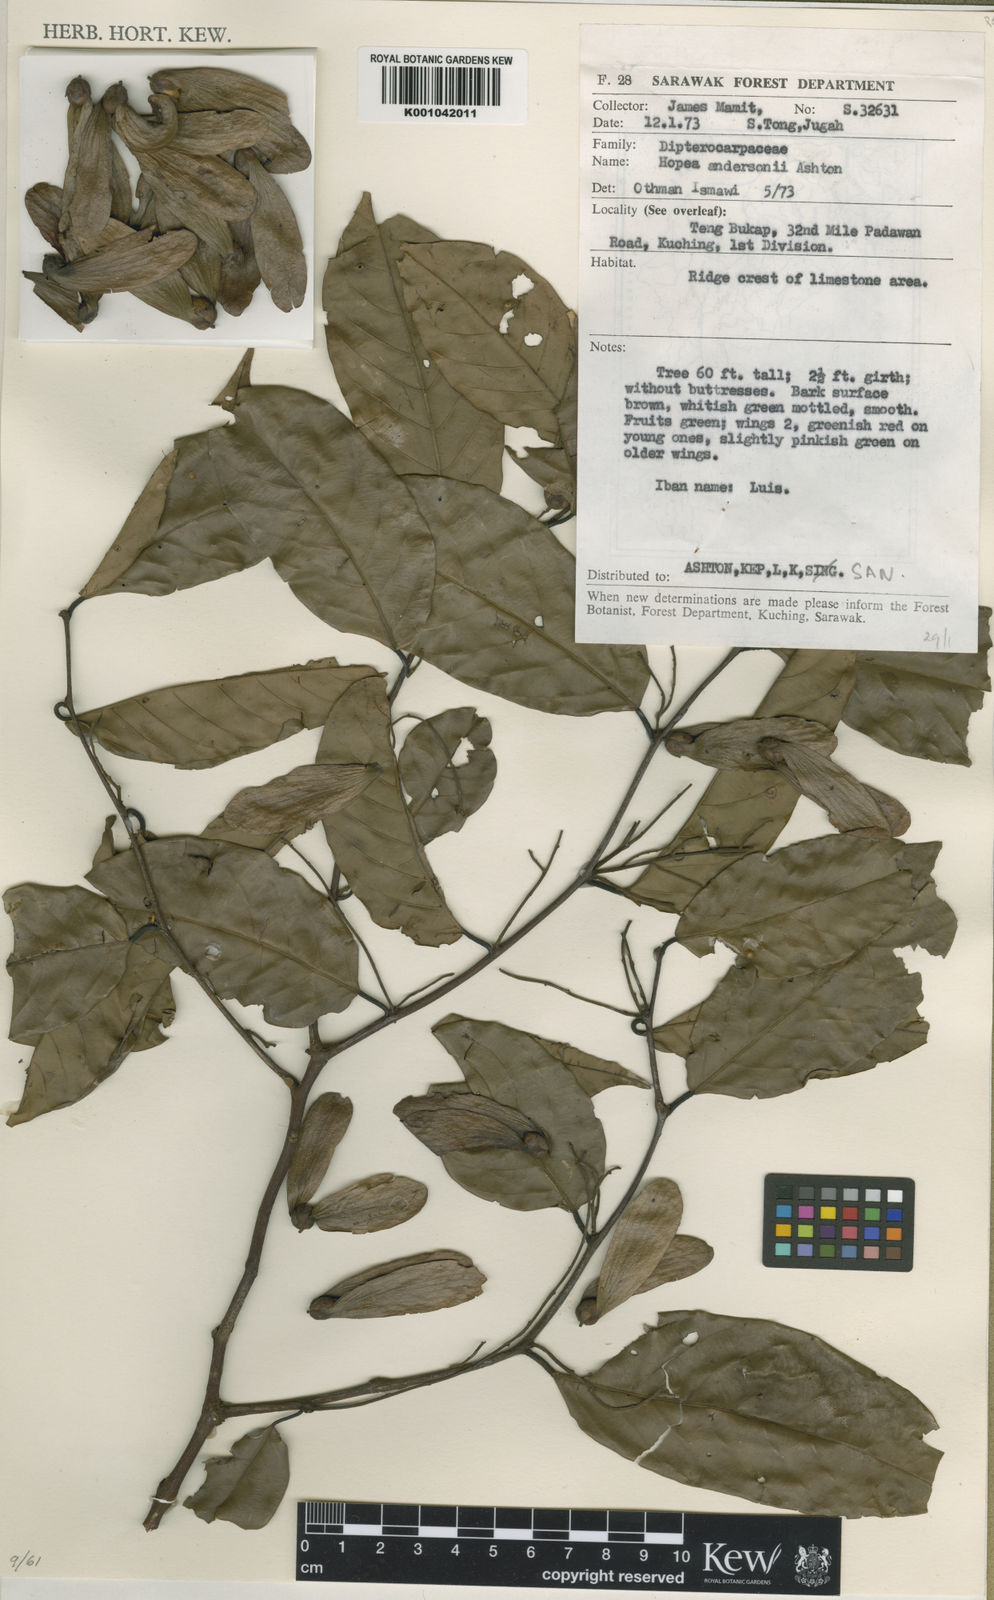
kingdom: Plantae
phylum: Tracheophyta
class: Magnoliopsida
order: Malvales
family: Dipterocarpaceae
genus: Hopea
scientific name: Hopea andersonii
